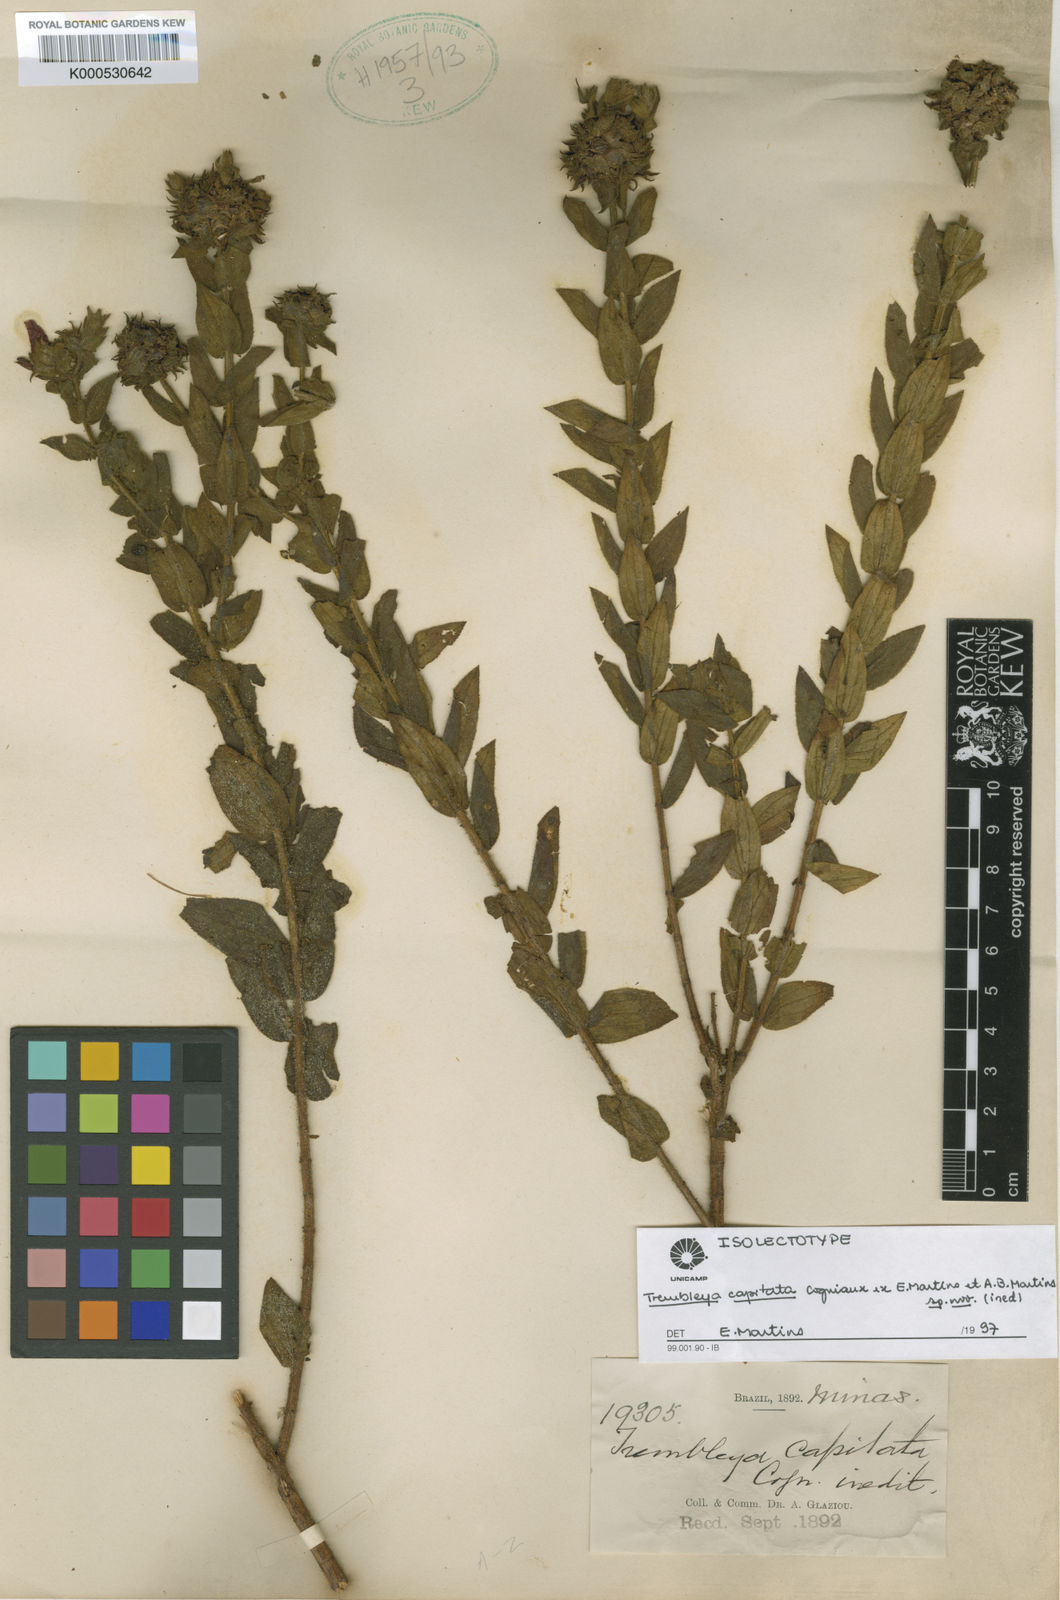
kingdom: Plantae
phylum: Tracheophyta
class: Magnoliopsida
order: Myrtales
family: Melastomataceae
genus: Microlicia
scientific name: Microlicia Trembleya capitata
